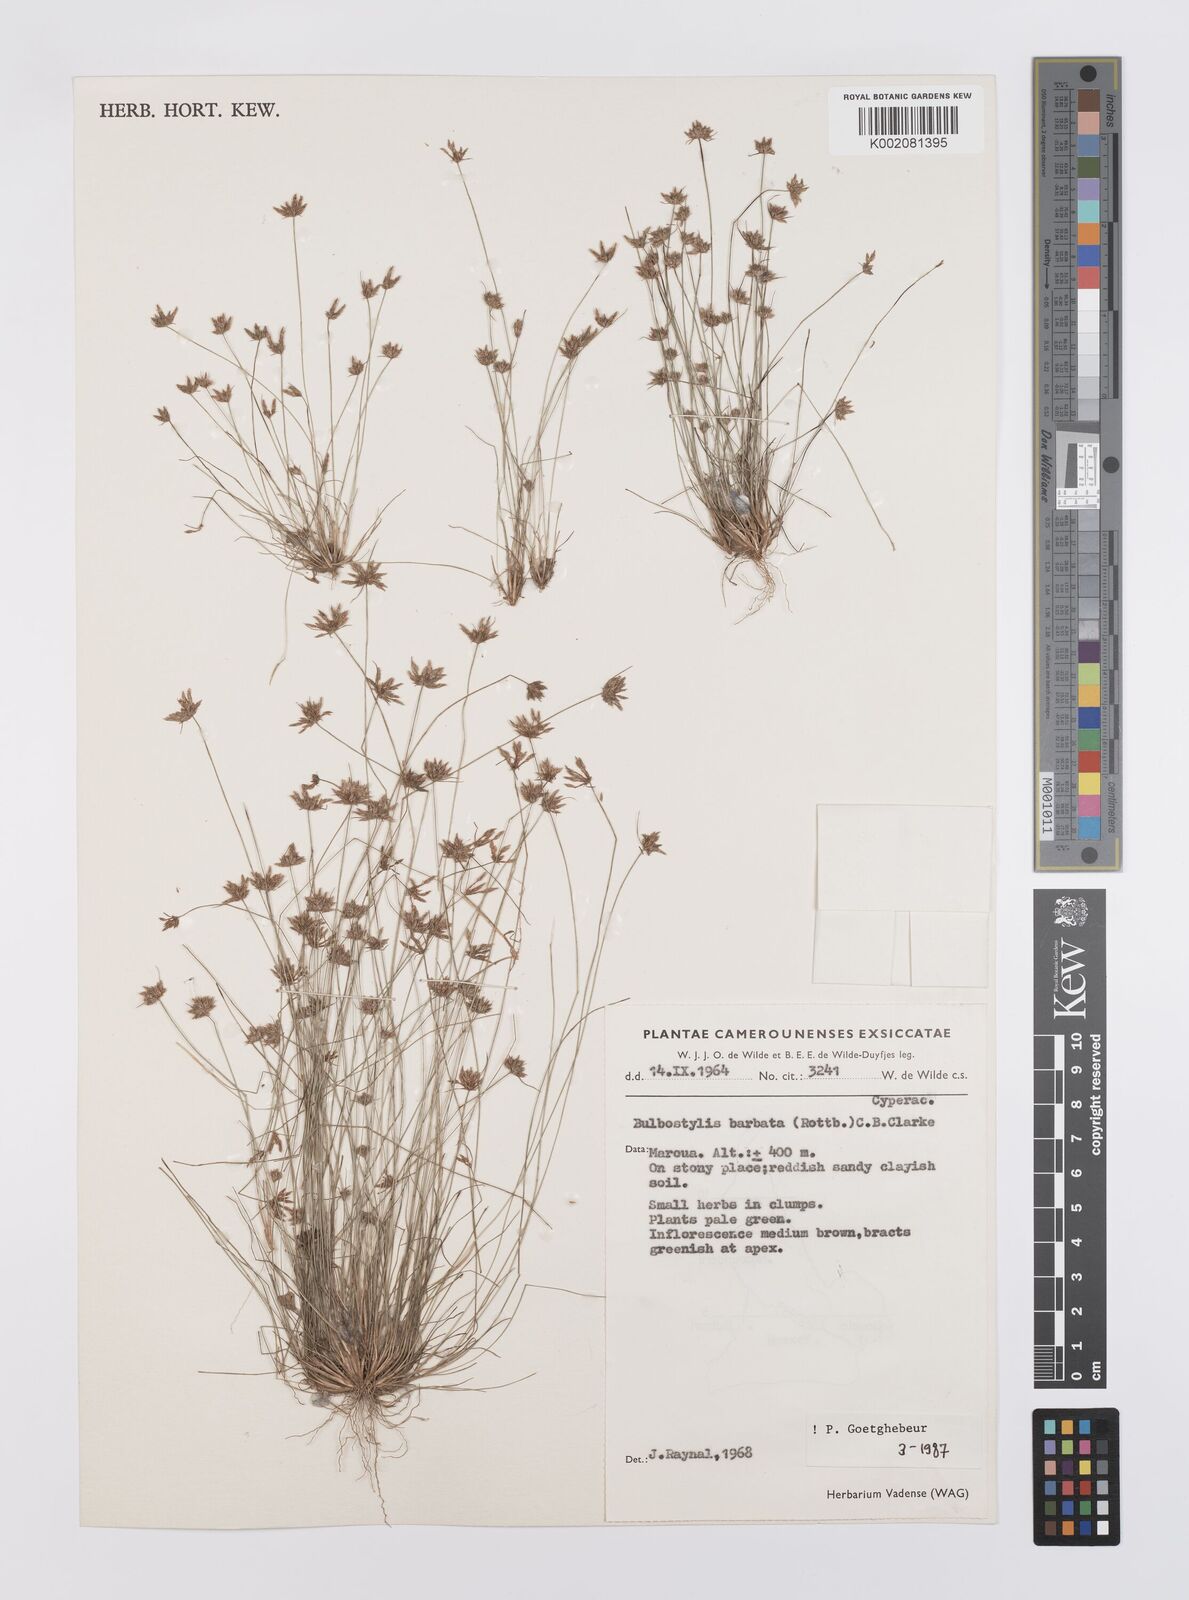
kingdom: Plantae
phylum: Tracheophyta
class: Liliopsida
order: Poales
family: Cyperaceae
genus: Bulbostylis
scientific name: Bulbostylis barbata
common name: Watergrass
